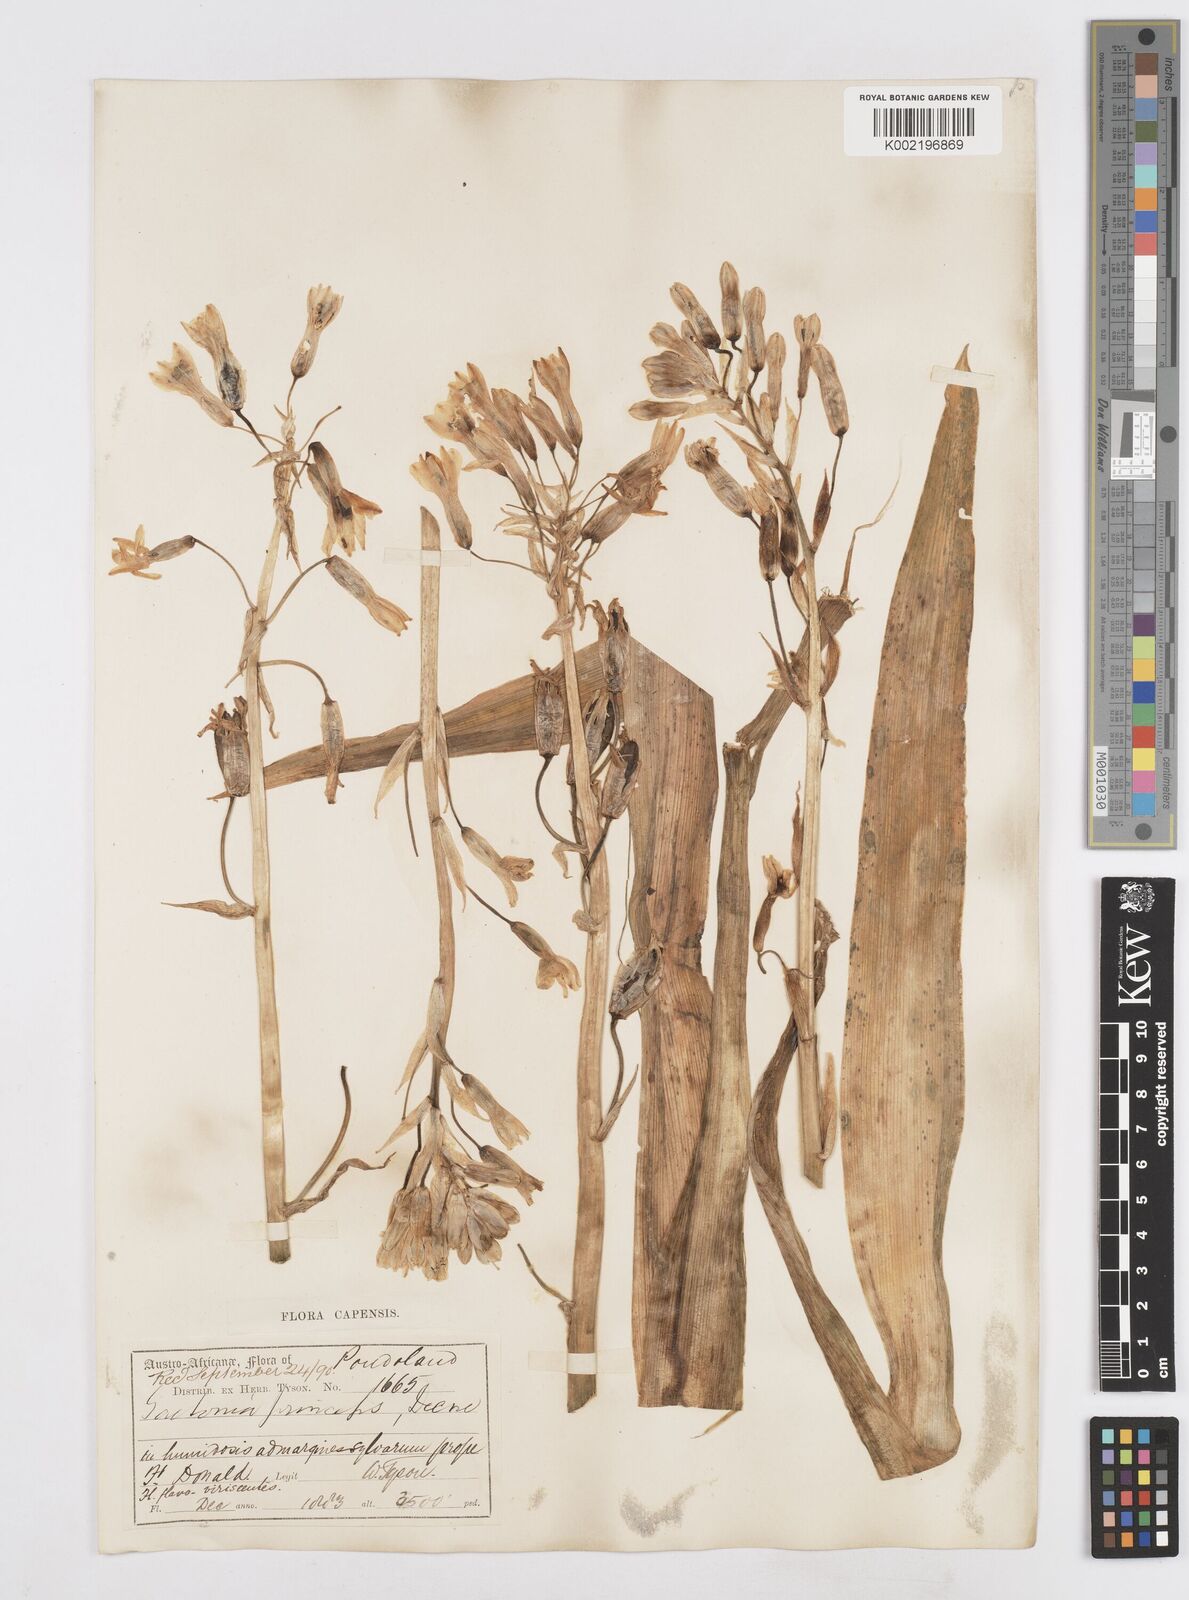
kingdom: Plantae
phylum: Tracheophyta
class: Liliopsida
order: Asparagales
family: Asparagaceae
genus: Ornithogalum
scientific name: Ornithogalum princeps
